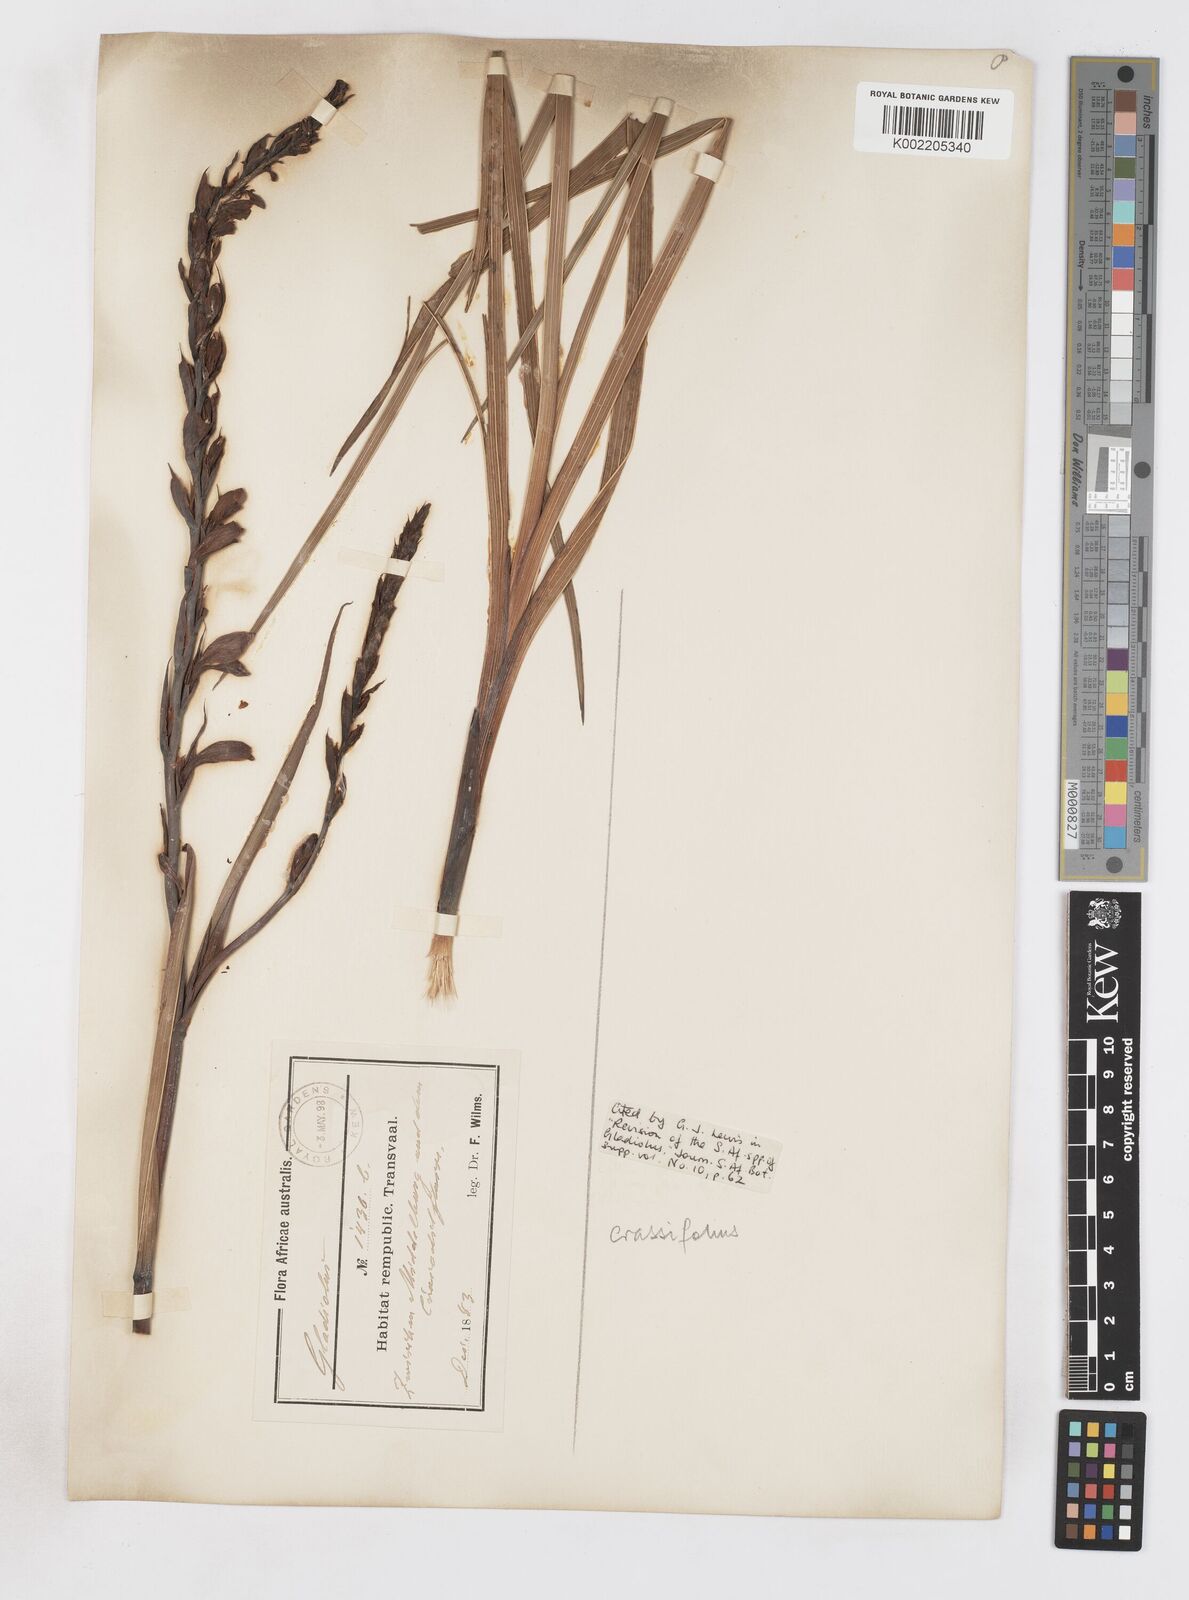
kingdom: Plantae
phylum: Tracheophyta
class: Liliopsida
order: Asparagales
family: Iridaceae
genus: Gladiolus
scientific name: Gladiolus crassifolius
